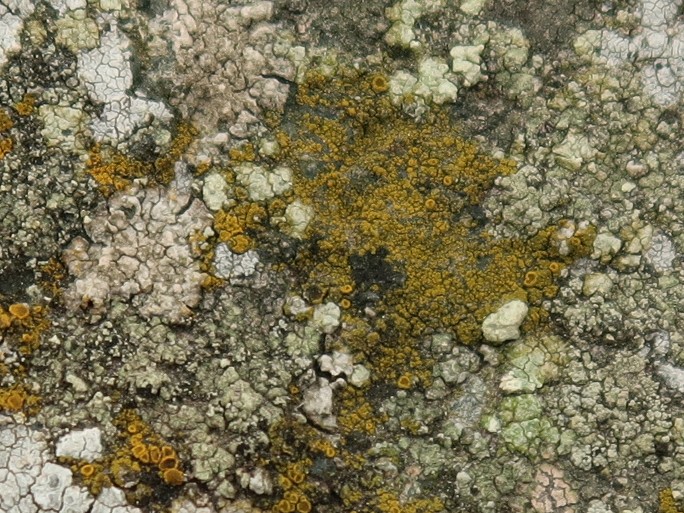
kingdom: Fungi
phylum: Ascomycota
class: Candelariomycetes
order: Candelariales
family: Candelariaceae
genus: Candelariella
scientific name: Candelariella vitellina
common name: almindelig æggeblommelav
